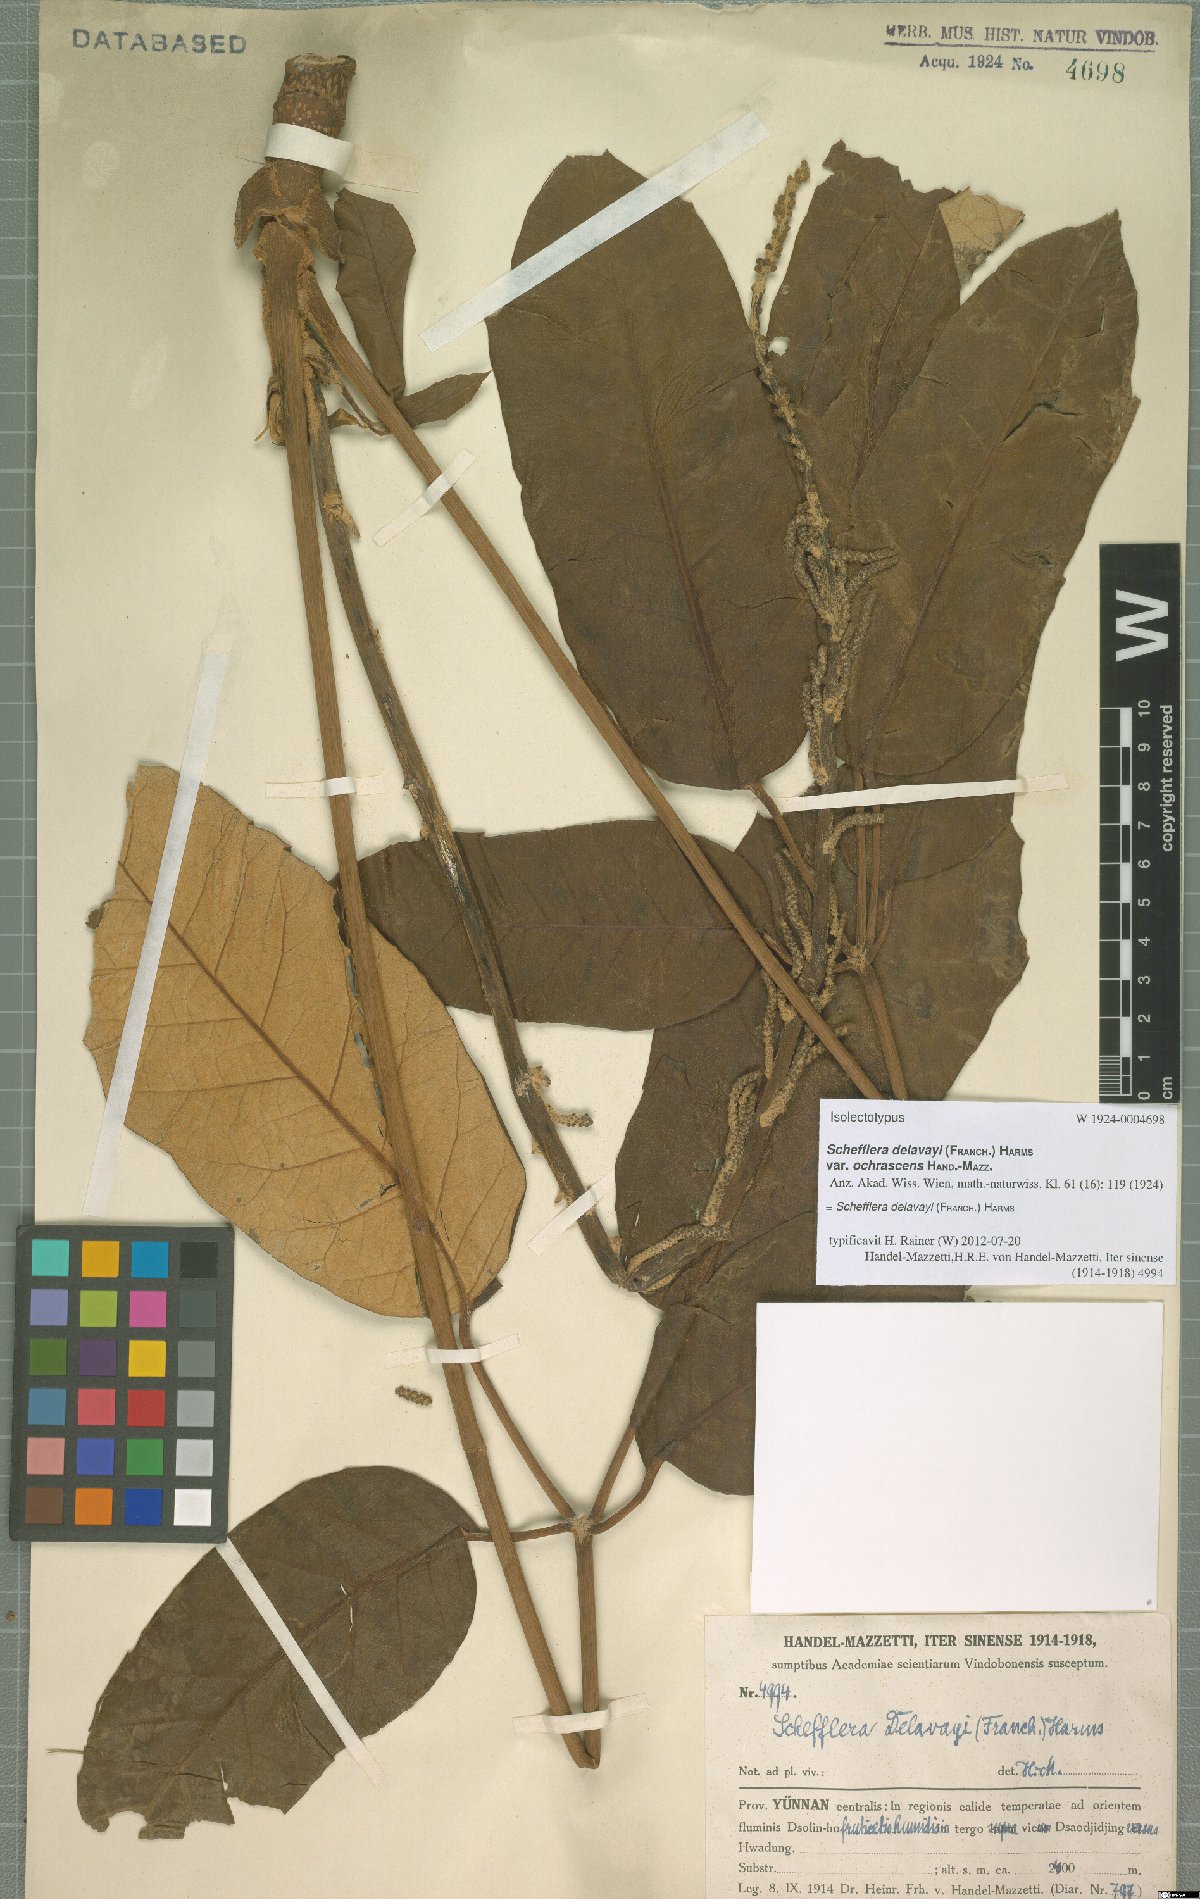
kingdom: Plantae
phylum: Tracheophyta
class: Magnoliopsida
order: Apiales
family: Araliaceae
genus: Heptapleurum
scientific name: Heptapleurum delavayi
